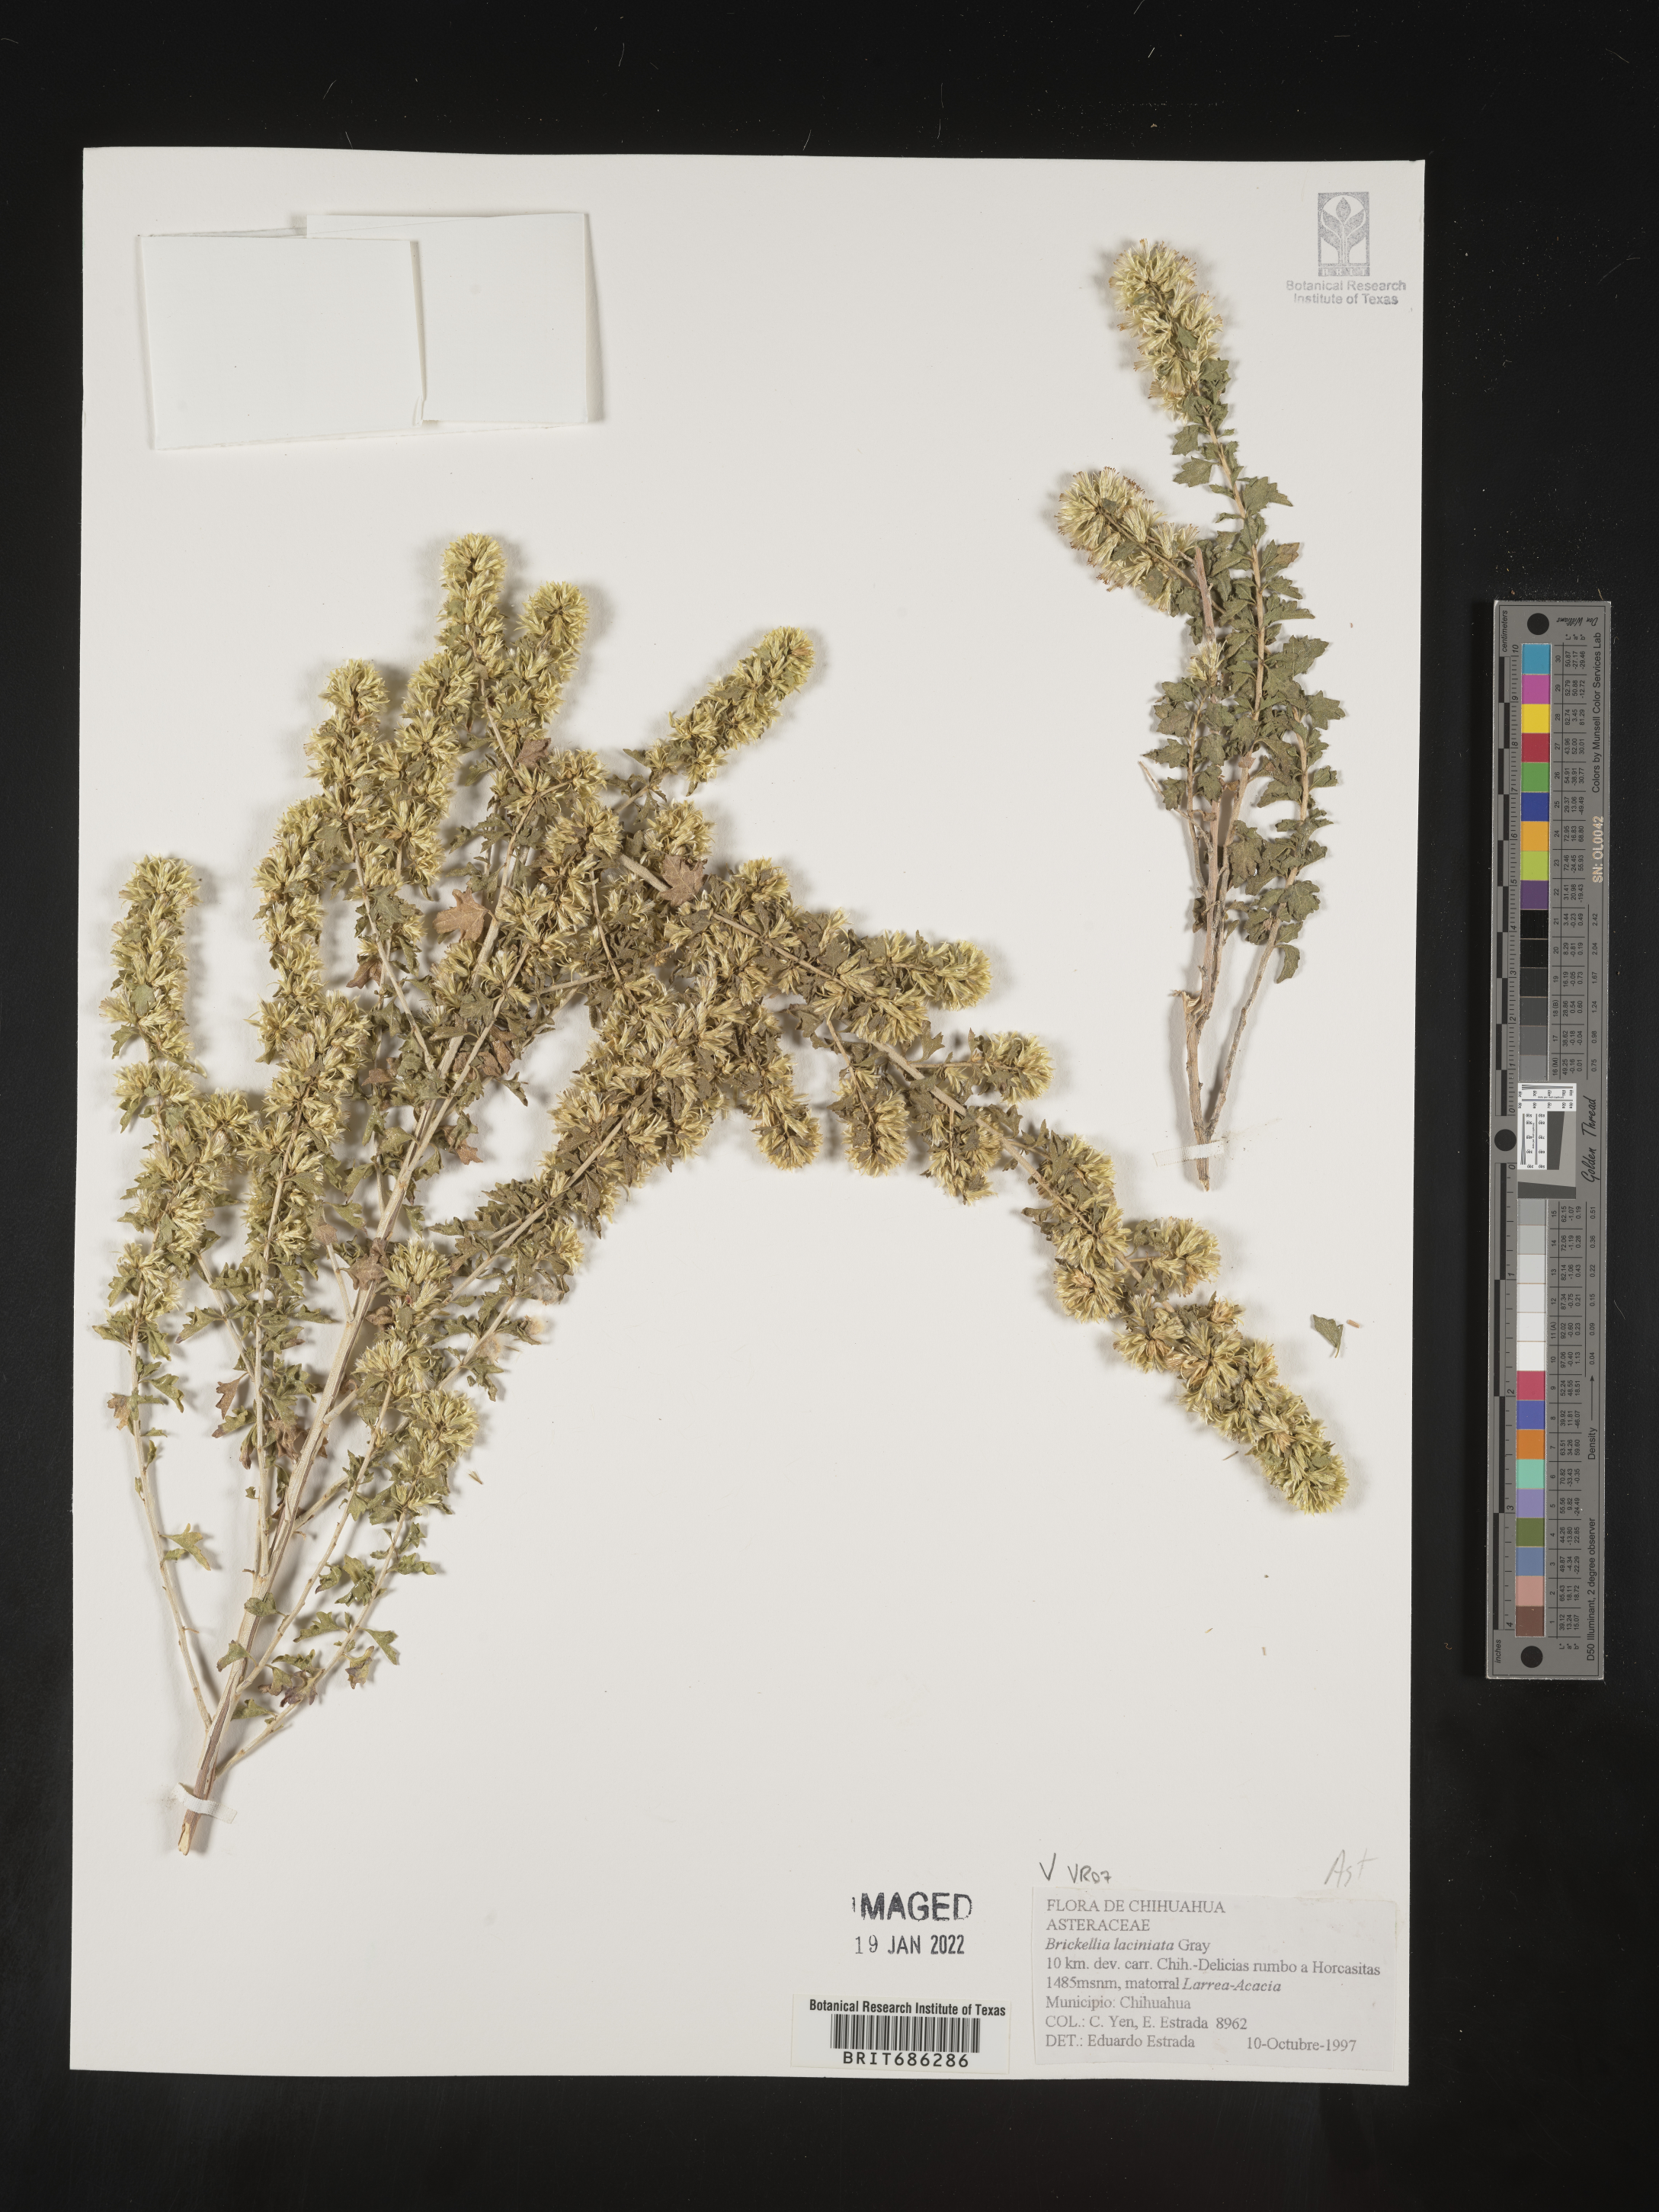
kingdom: Plantae
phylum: Tracheophyta
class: Magnoliopsida
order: Asterales
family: Asteraceae
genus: Brickellia
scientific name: Brickellia
